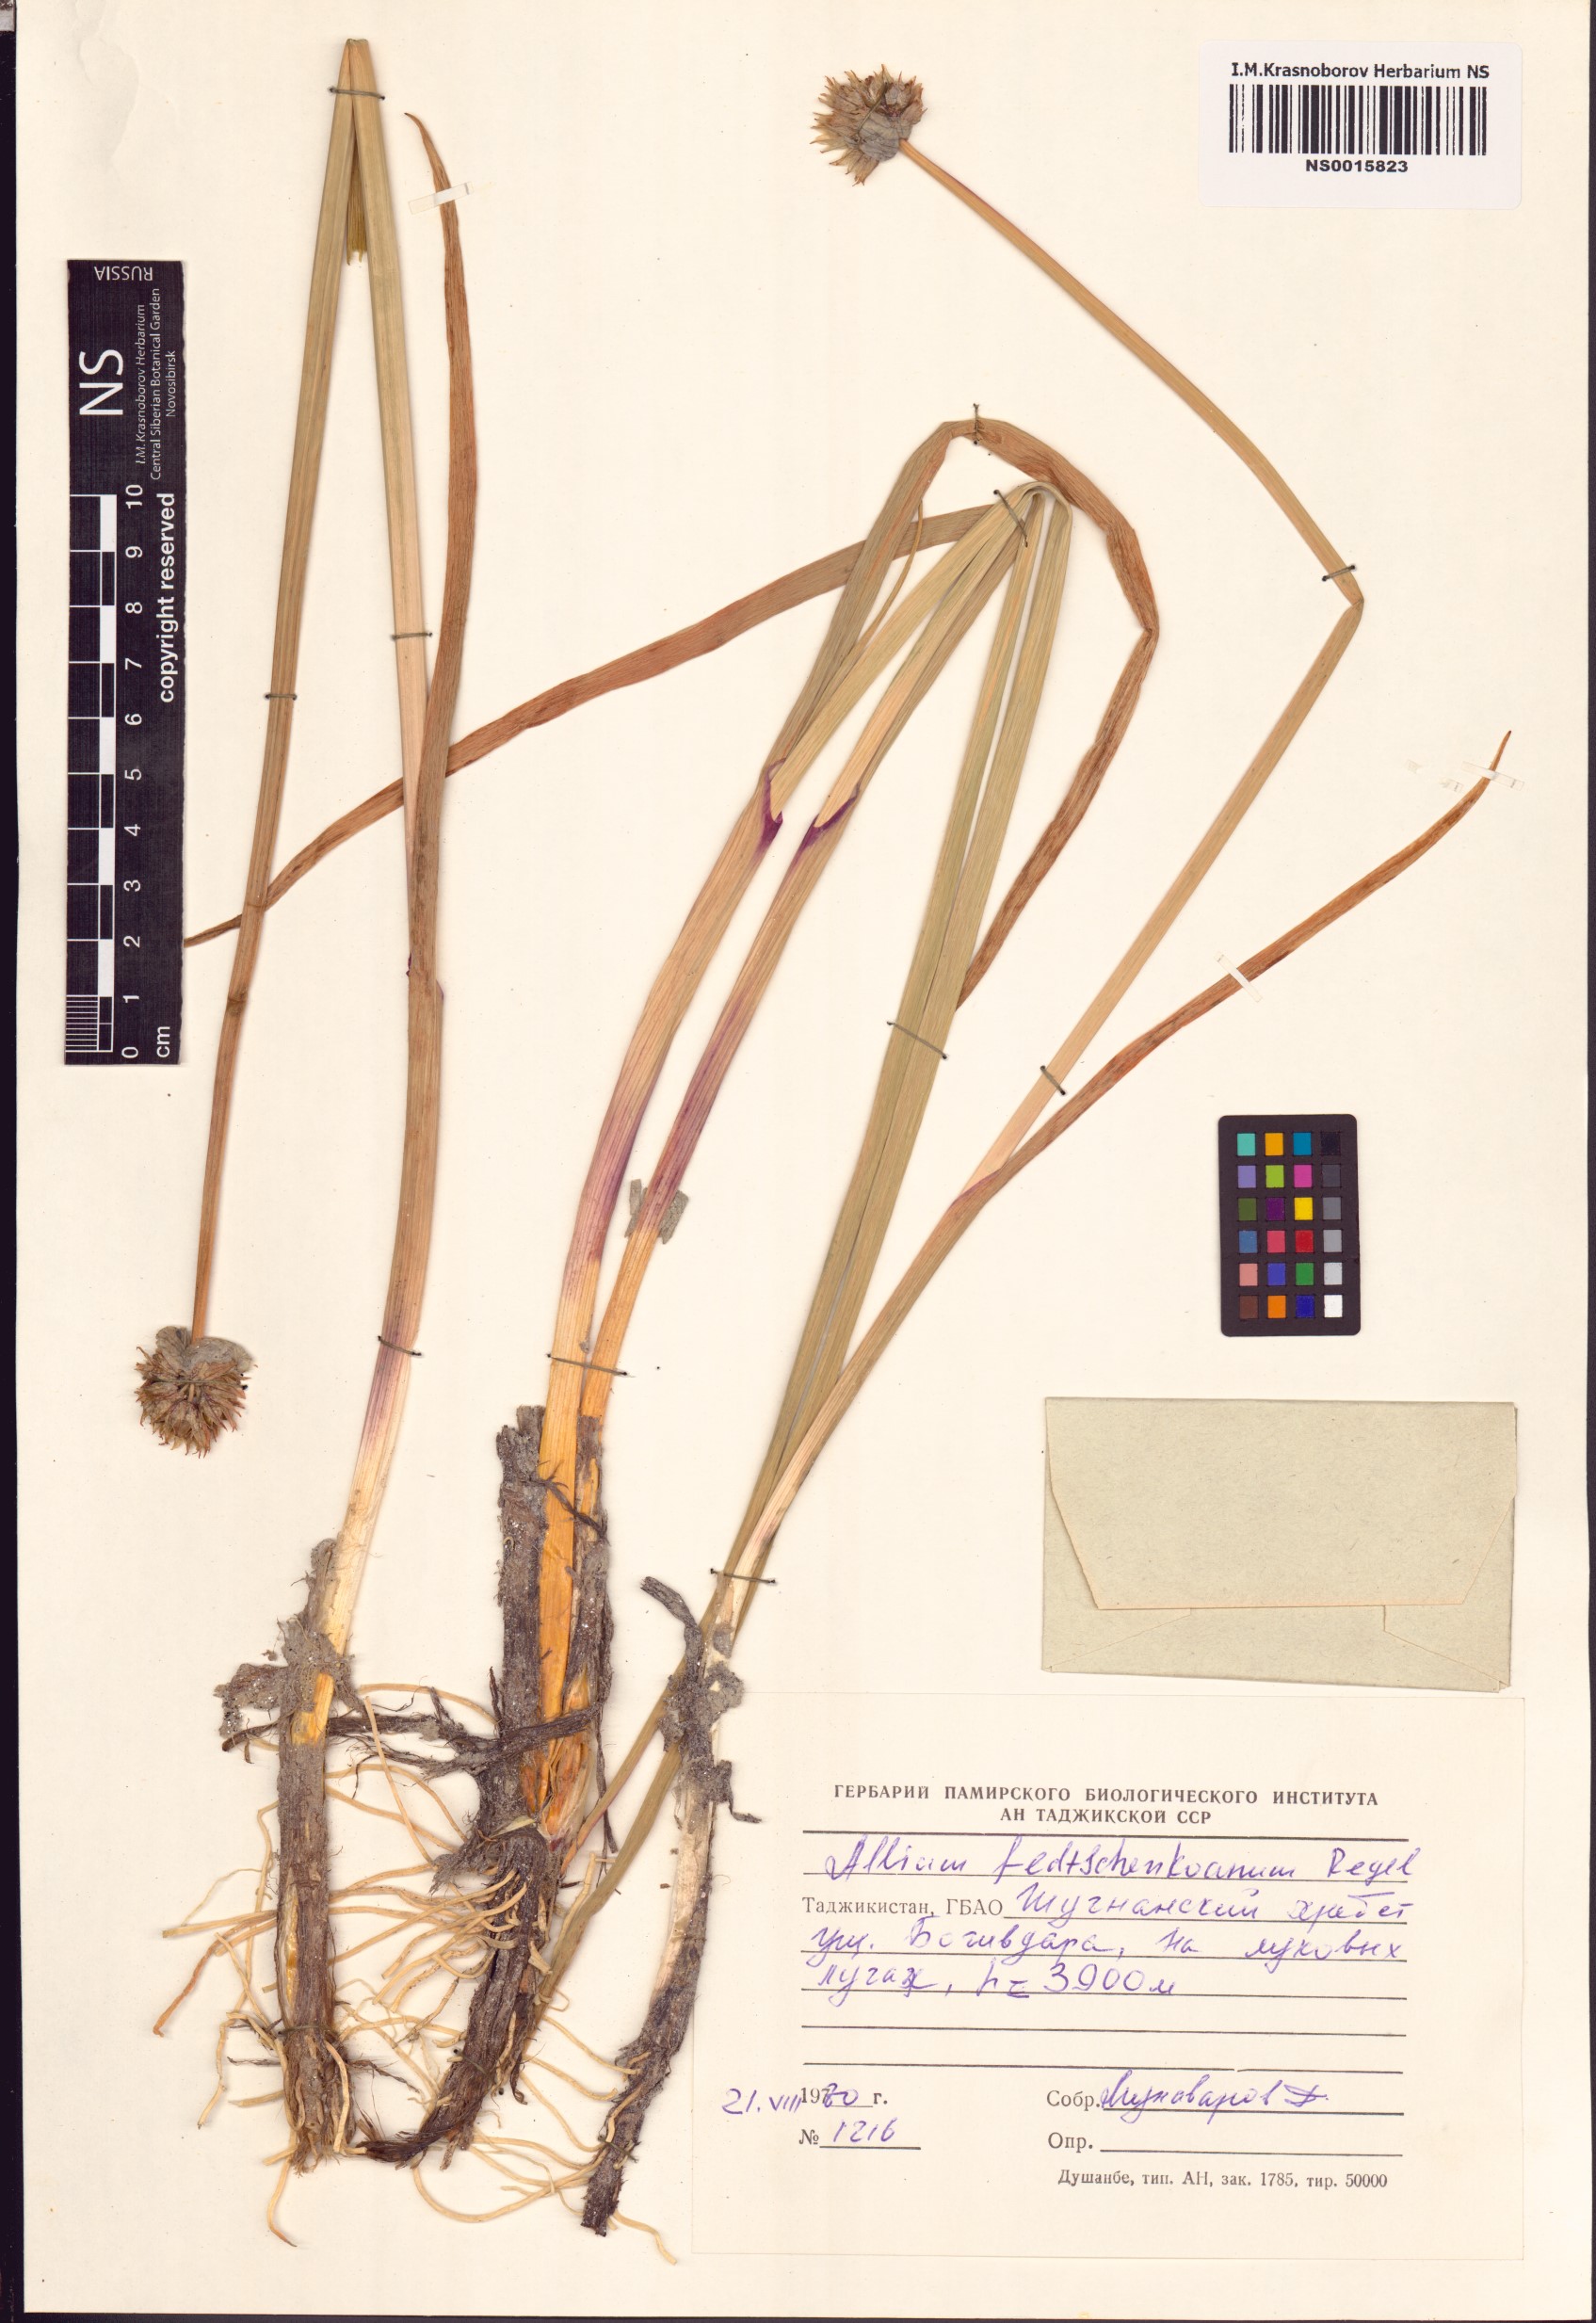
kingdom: Plantae
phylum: Tracheophyta
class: Liliopsida
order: Asparagales
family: Amaryllidaceae
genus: Allium
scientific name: Allium atrosanguineum
